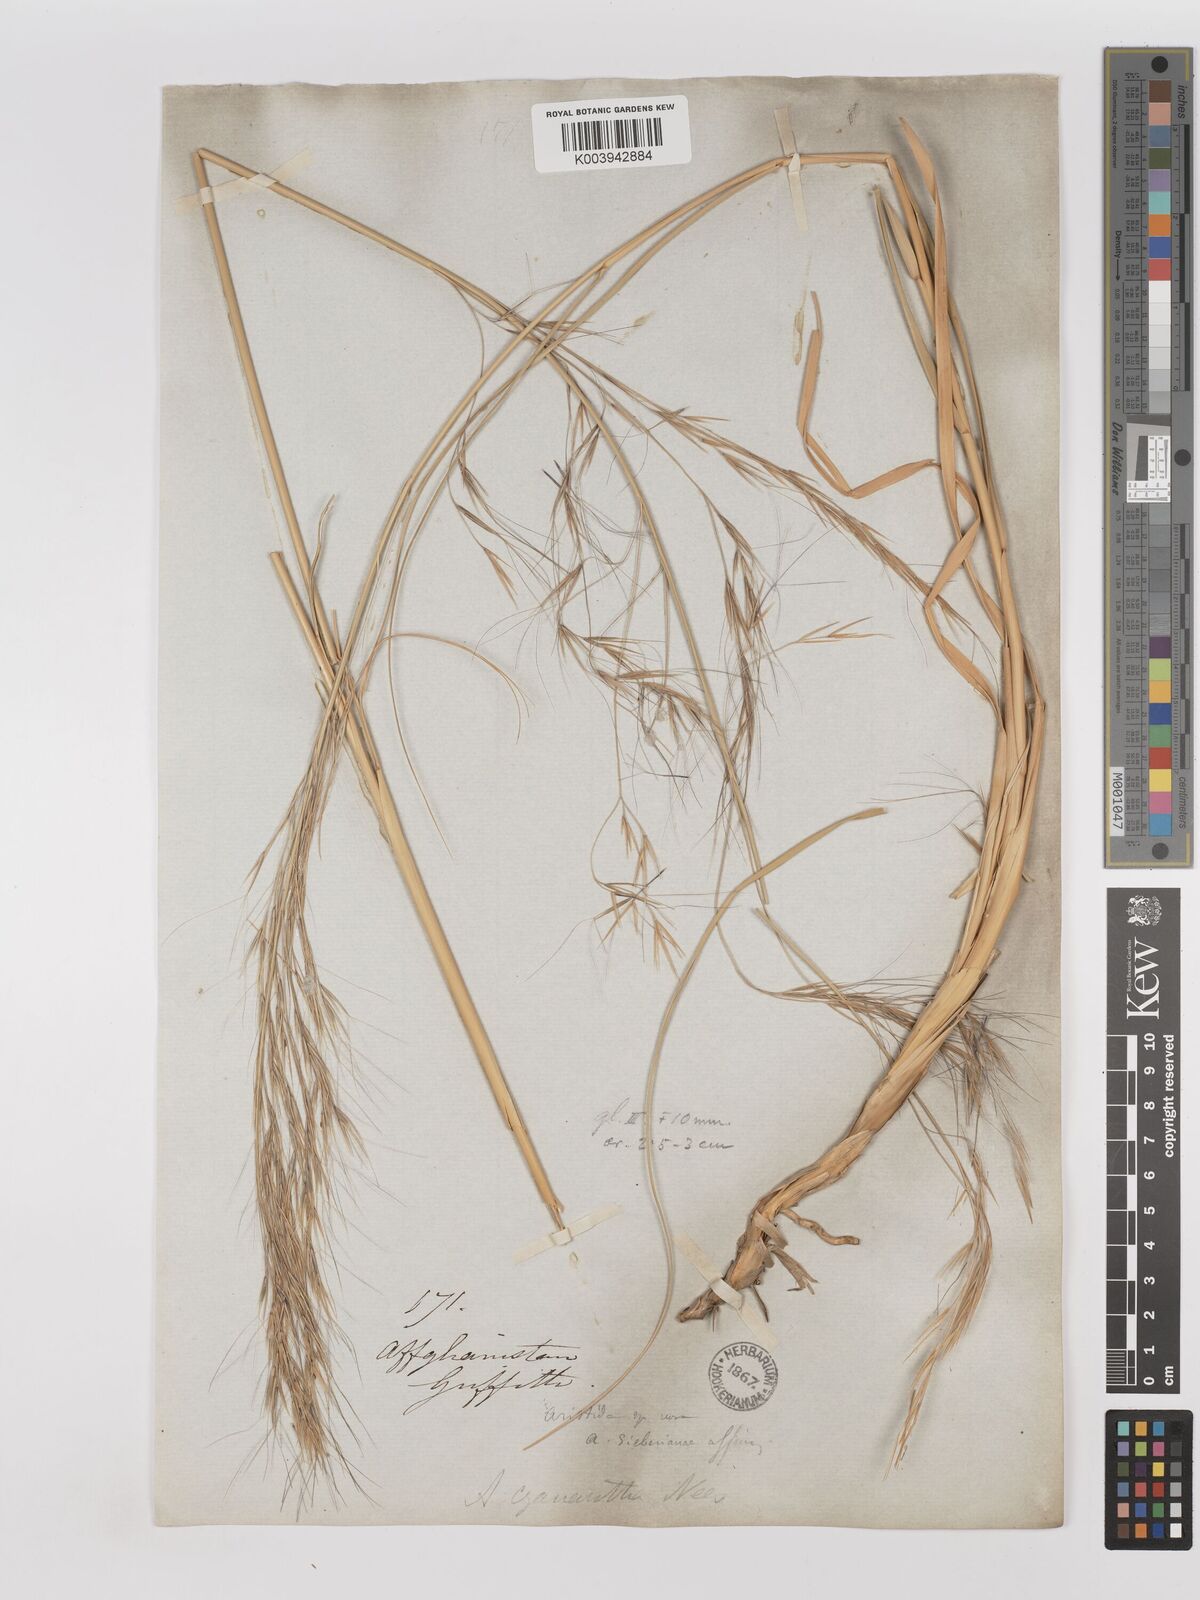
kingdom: Plantae
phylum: Tracheophyta
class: Liliopsida
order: Poales
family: Poaceae
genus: Aristida
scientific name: Aristida cyanantha
